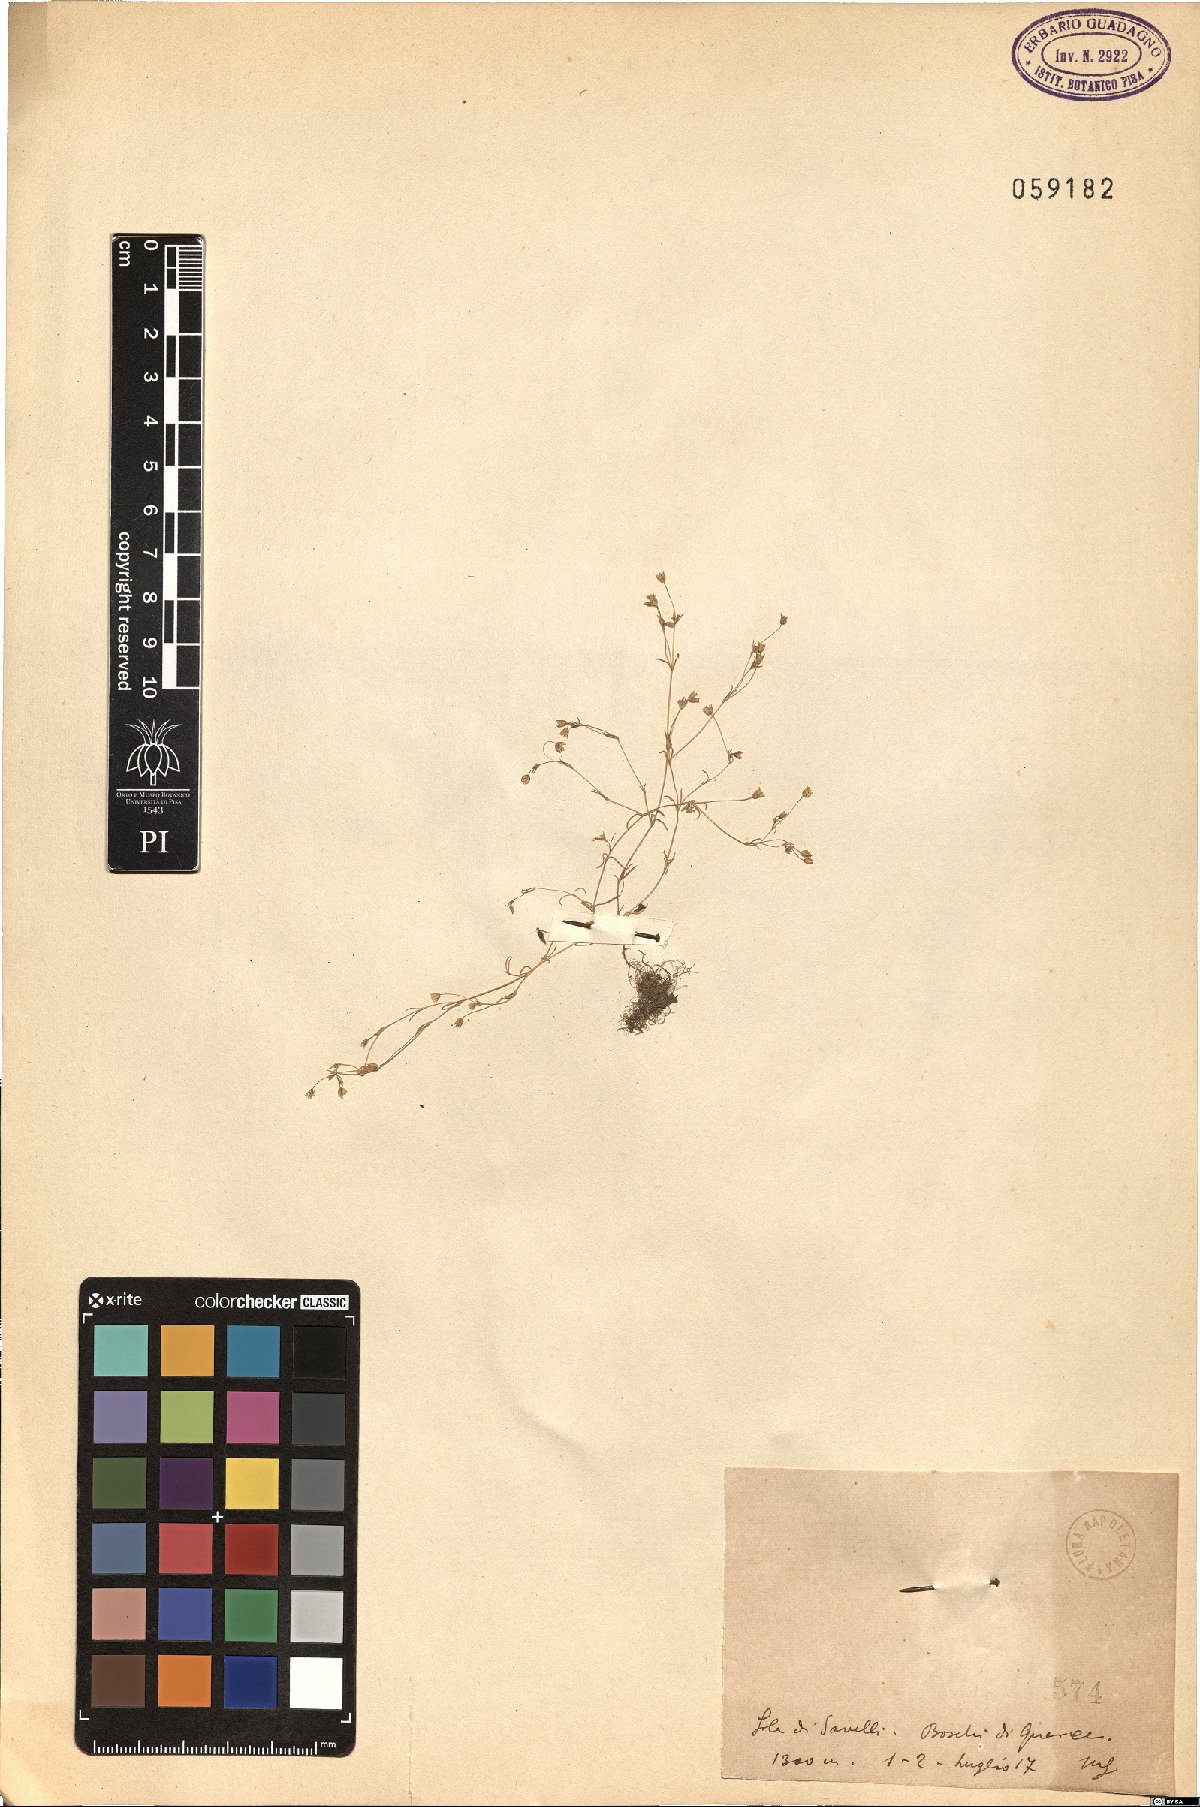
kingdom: Plantae
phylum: Tracheophyta
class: Magnoliopsida
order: Caryophyllales
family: Caryophyllaceae
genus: Sabulina
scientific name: Sabulina tenuifolia
